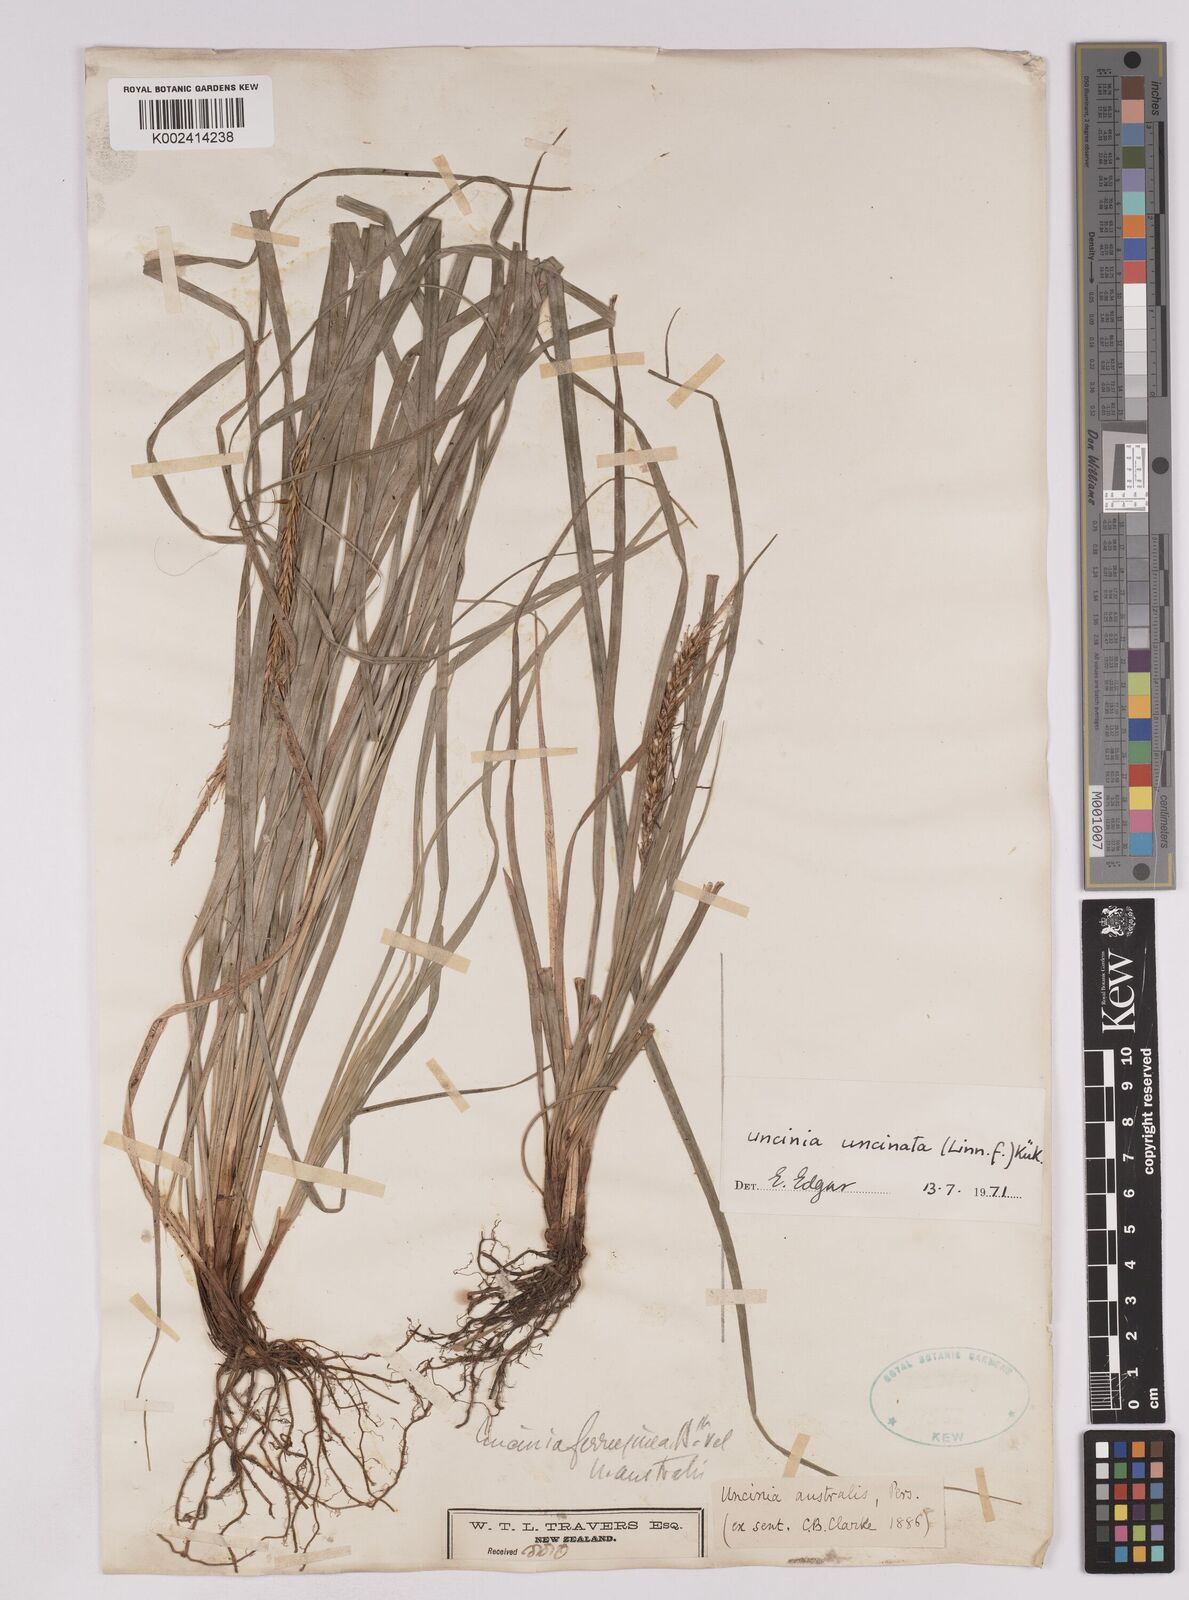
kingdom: Plantae
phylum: Tracheophyta
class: Liliopsida
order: Poales
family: Cyperaceae
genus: Carex
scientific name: Carex uncinata
